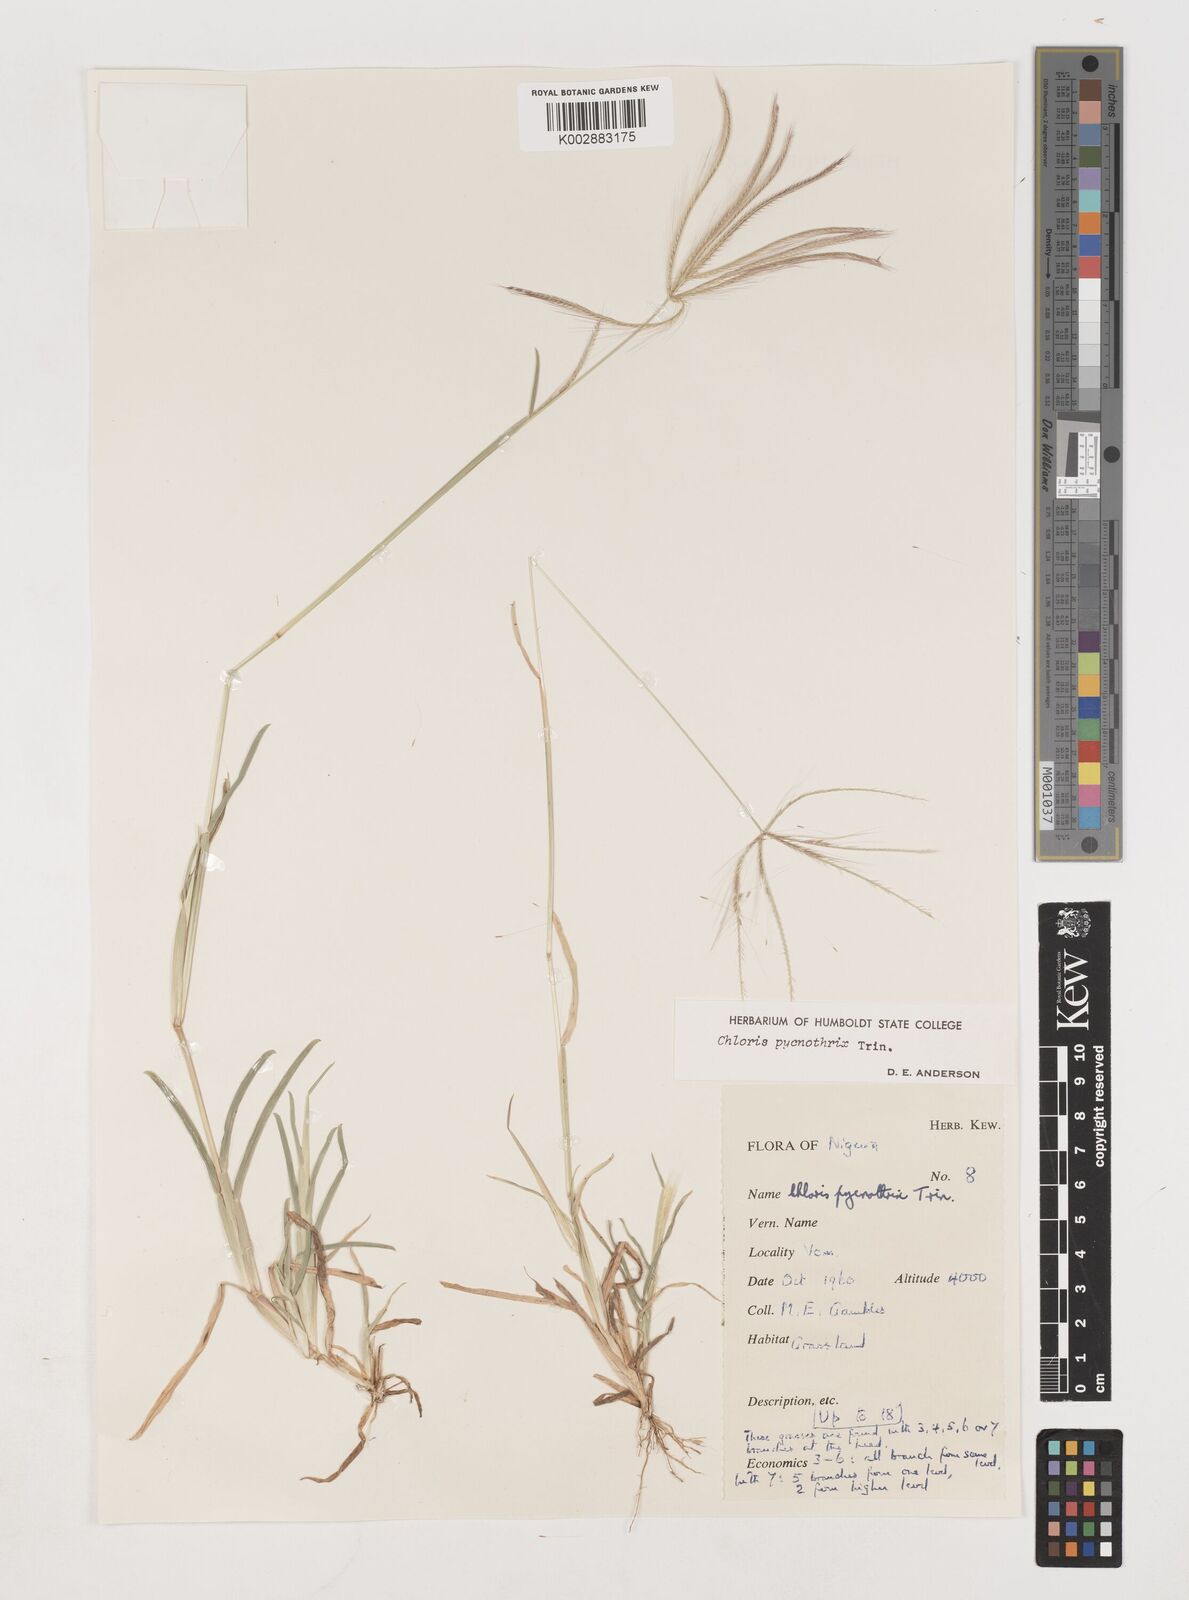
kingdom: Plantae
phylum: Tracheophyta
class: Liliopsida
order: Poales
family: Poaceae
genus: Chloris
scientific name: Chloris pycnothrix
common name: Spiderweb chloris
